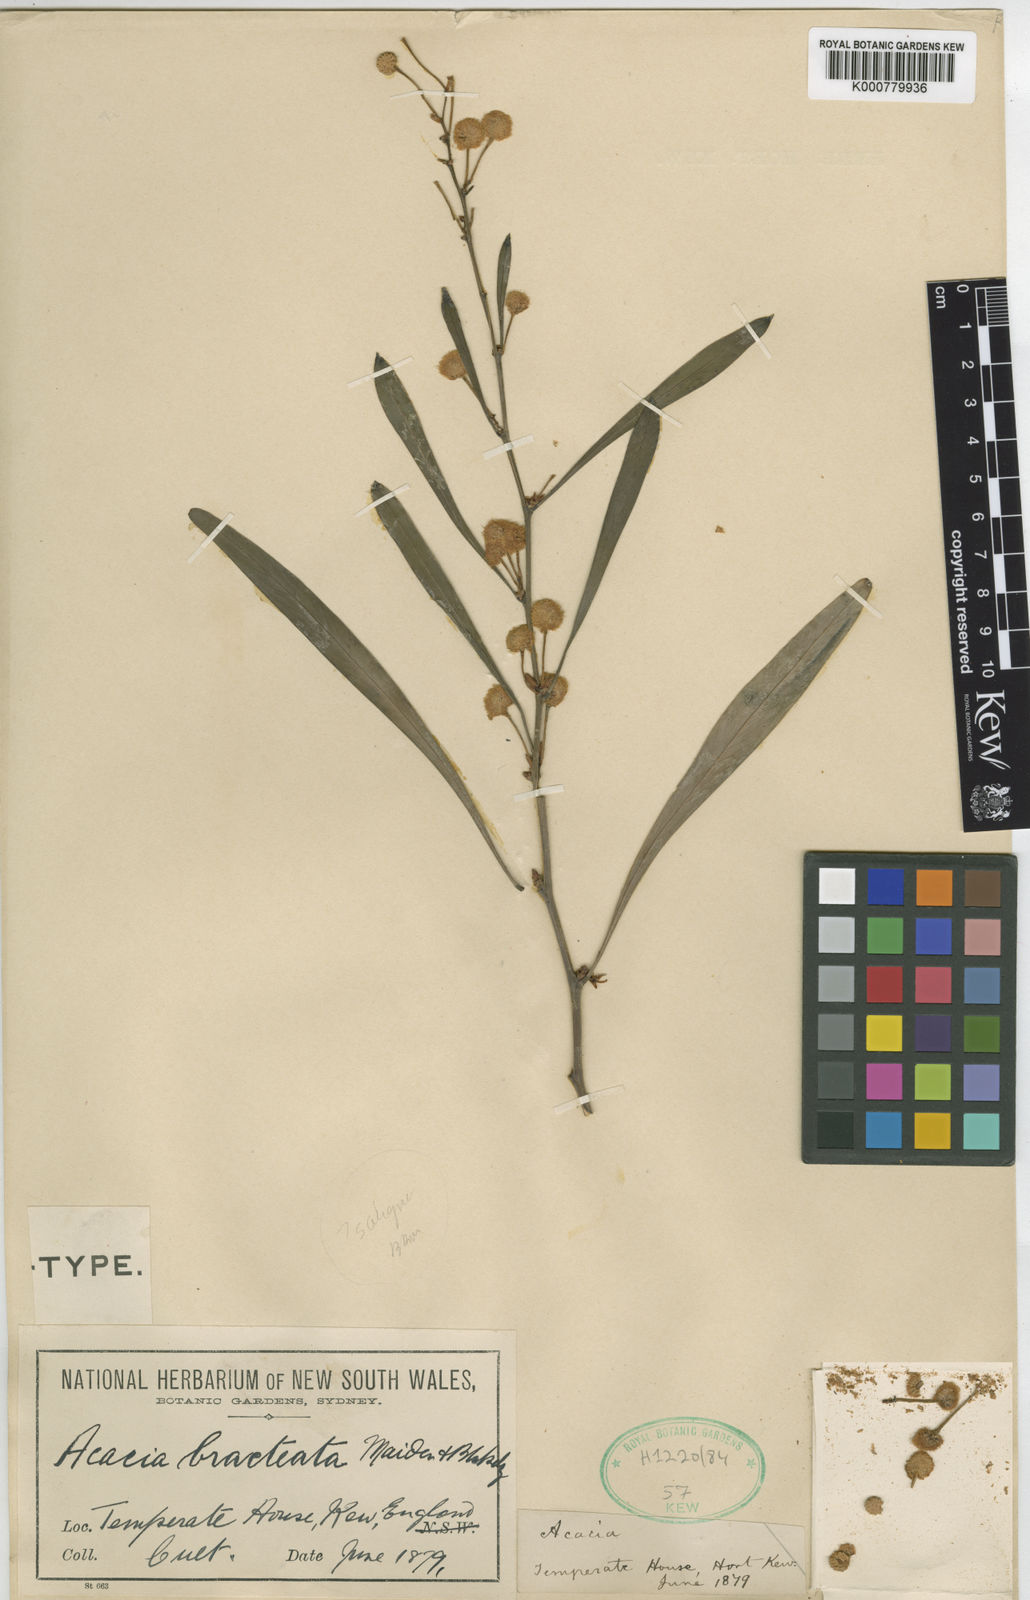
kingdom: Plantae
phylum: Tracheophyta
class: Magnoliopsida
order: Fabales
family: Fabaceae
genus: Acacia
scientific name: Acacia saligna
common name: Orange wattle
